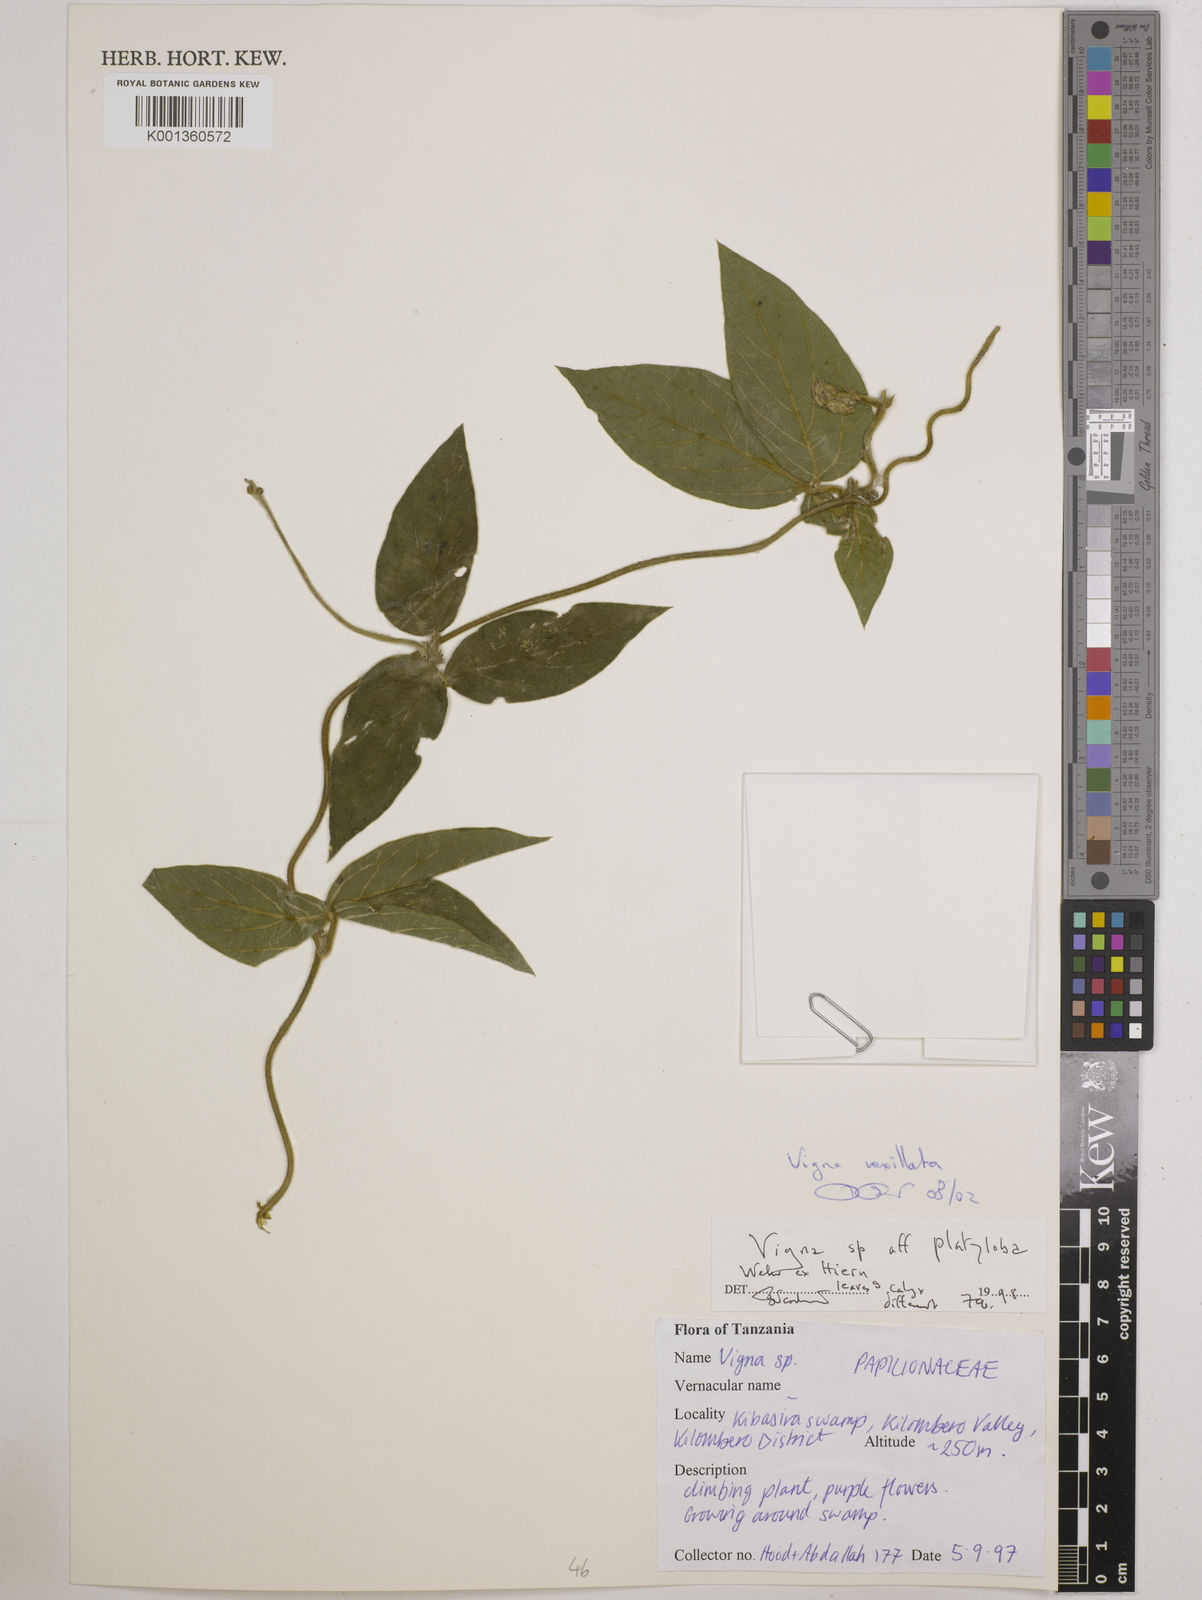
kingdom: Plantae
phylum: Tracheophyta
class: Magnoliopsida
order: Fabales
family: Fabaceae
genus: Vigna
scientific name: Vigna vexillata
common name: Zombi pea
